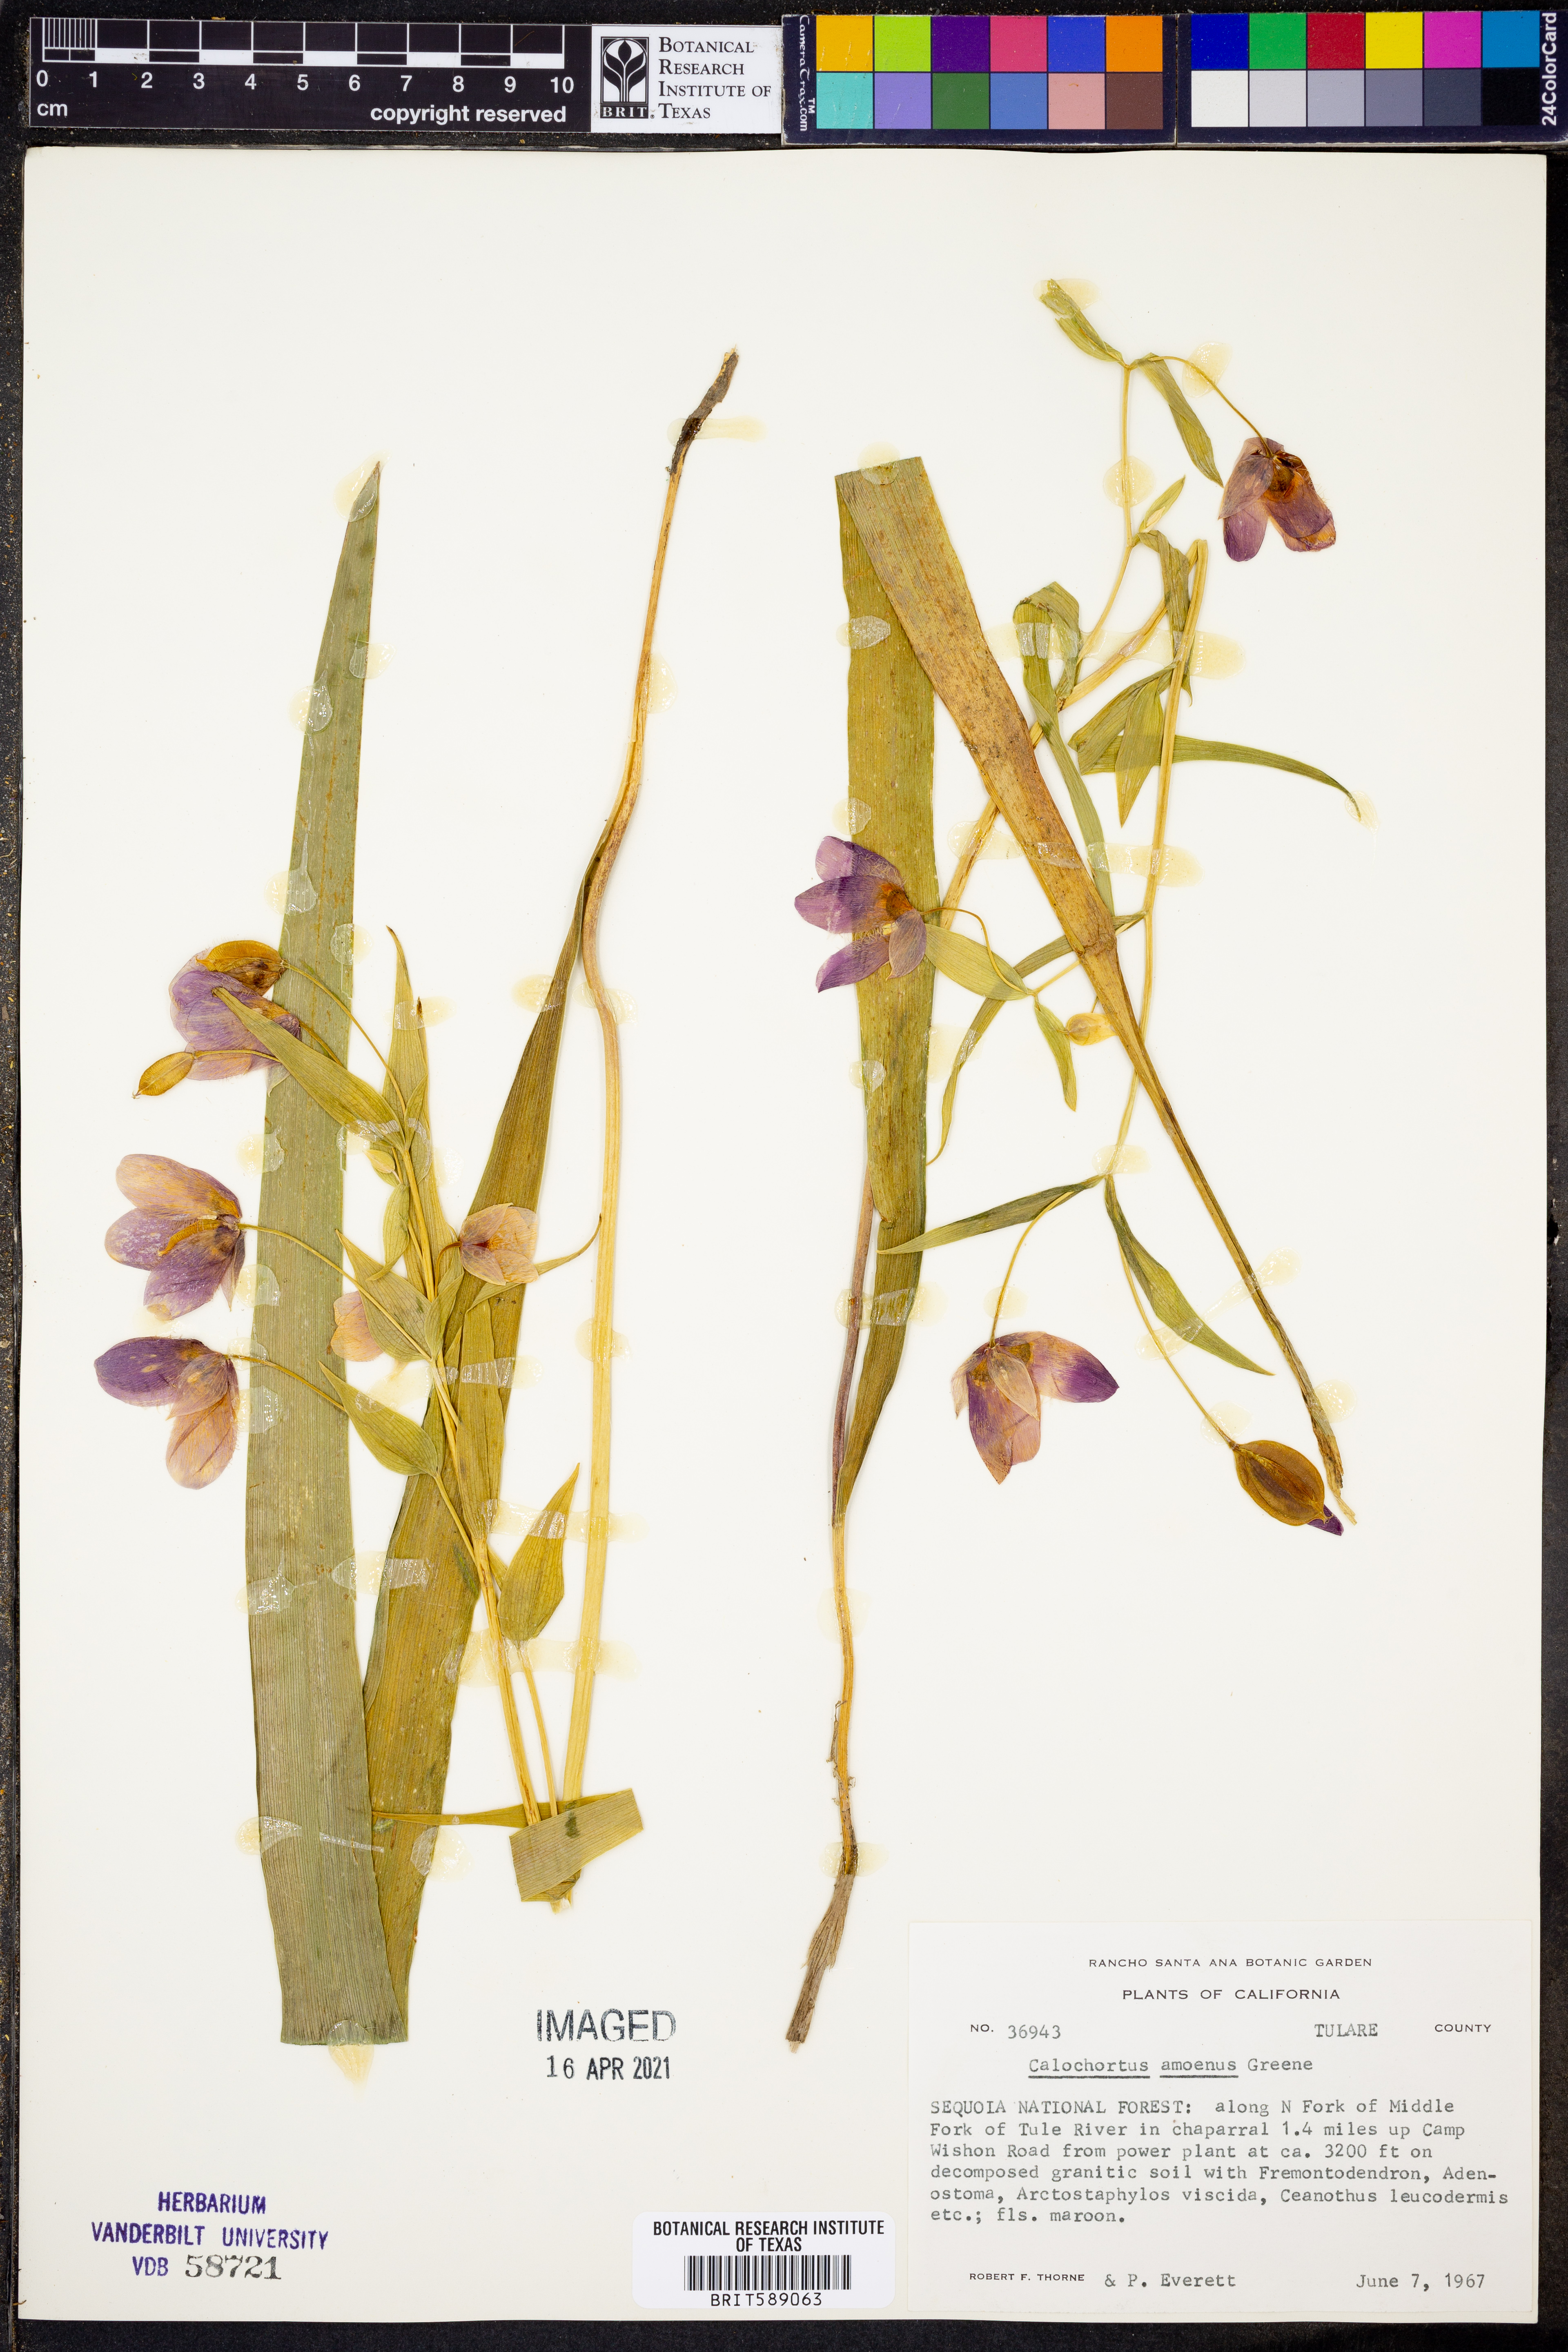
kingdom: Plantae
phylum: Tracheophyta
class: Liliopsida
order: Liliales
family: Liliaceae
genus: Calochortus
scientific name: Calochortus amoenus
